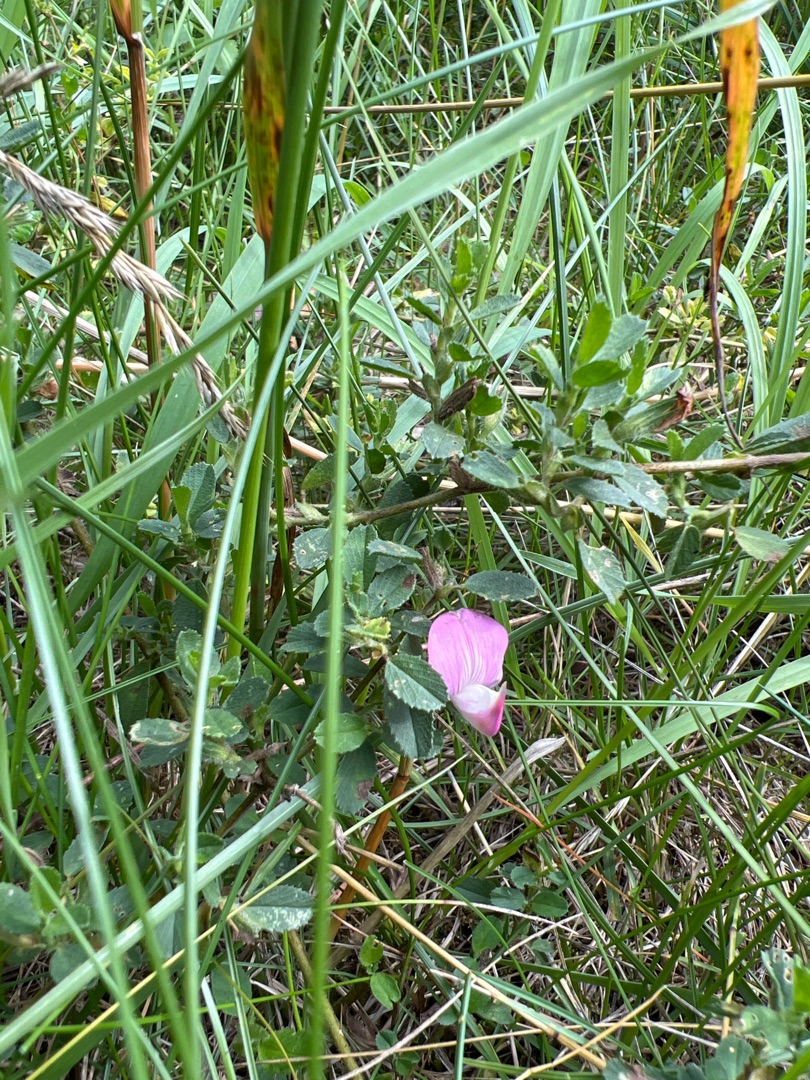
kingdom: Plantae
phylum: Tracheophyta
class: Magnoliopsida
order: Fabales
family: Fabaceae
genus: Ononis
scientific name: Ononis spinosa
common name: Mark-krageklo
